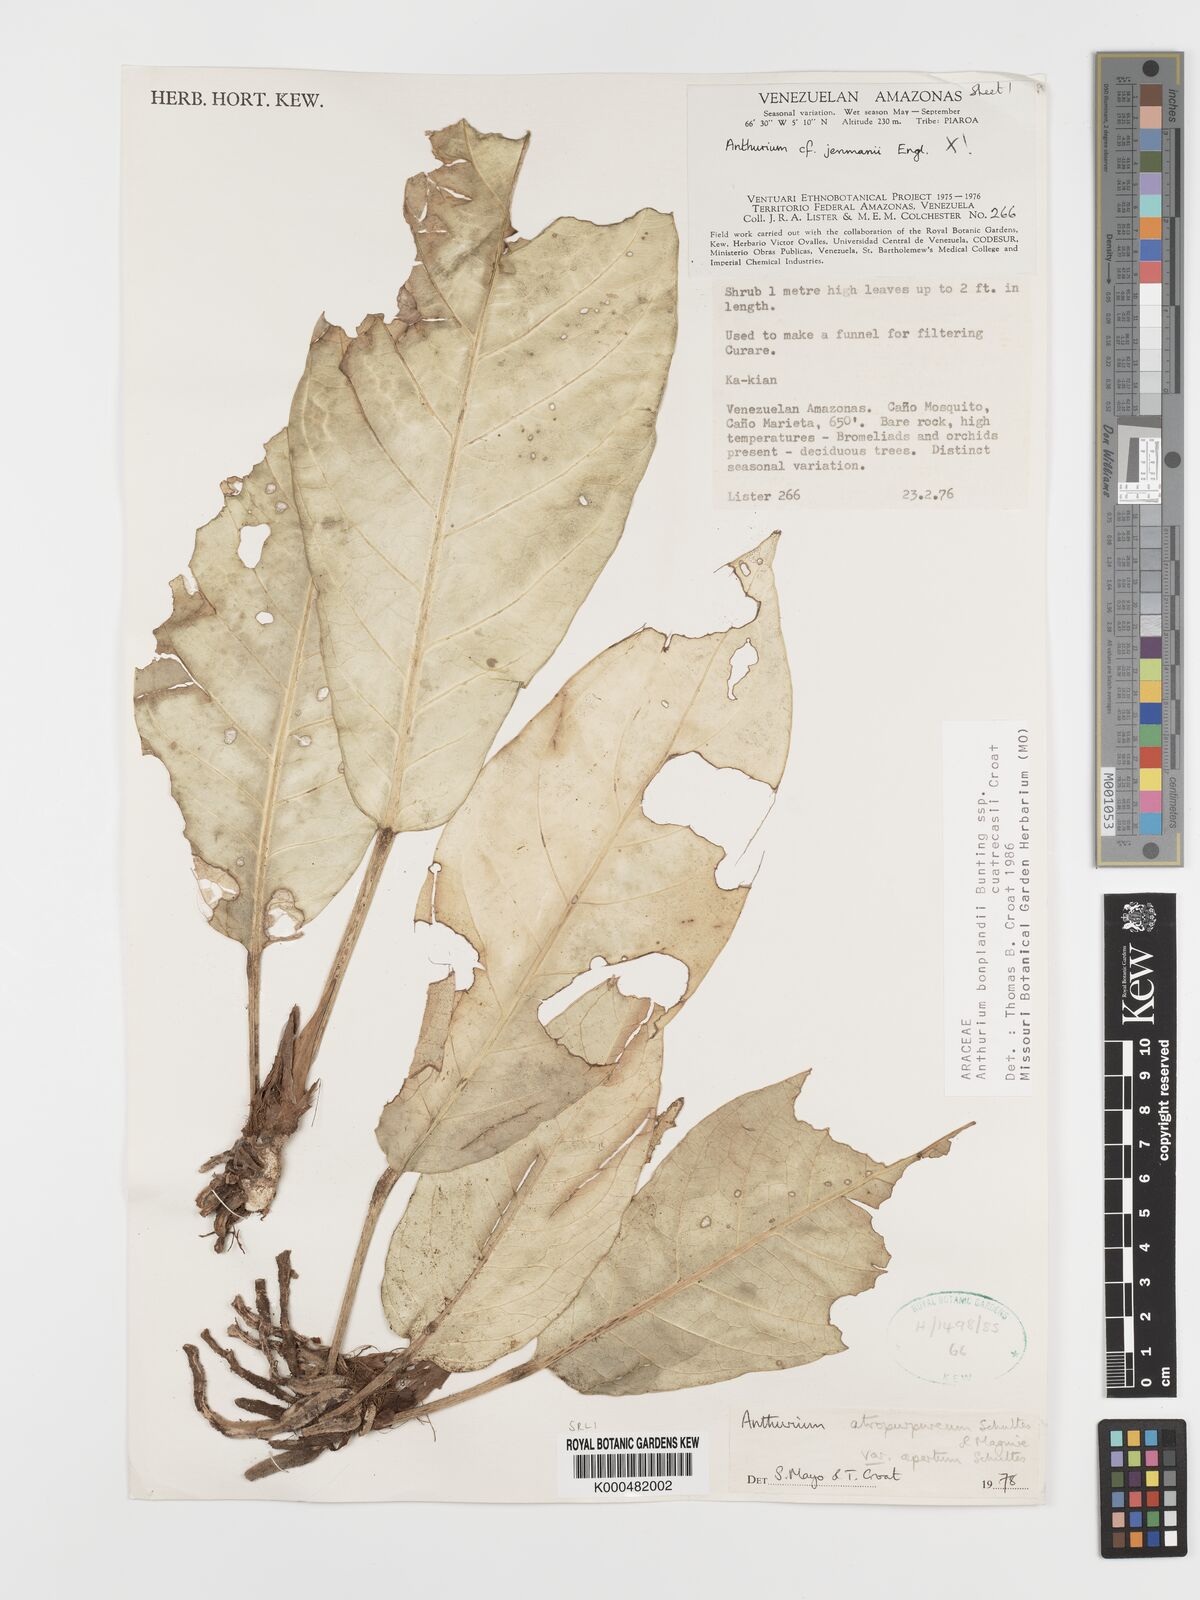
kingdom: Plantae
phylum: Tracheophyta
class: Liliopsida
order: Alismatales
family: Araceae
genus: Anthurium
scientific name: Anthurium
